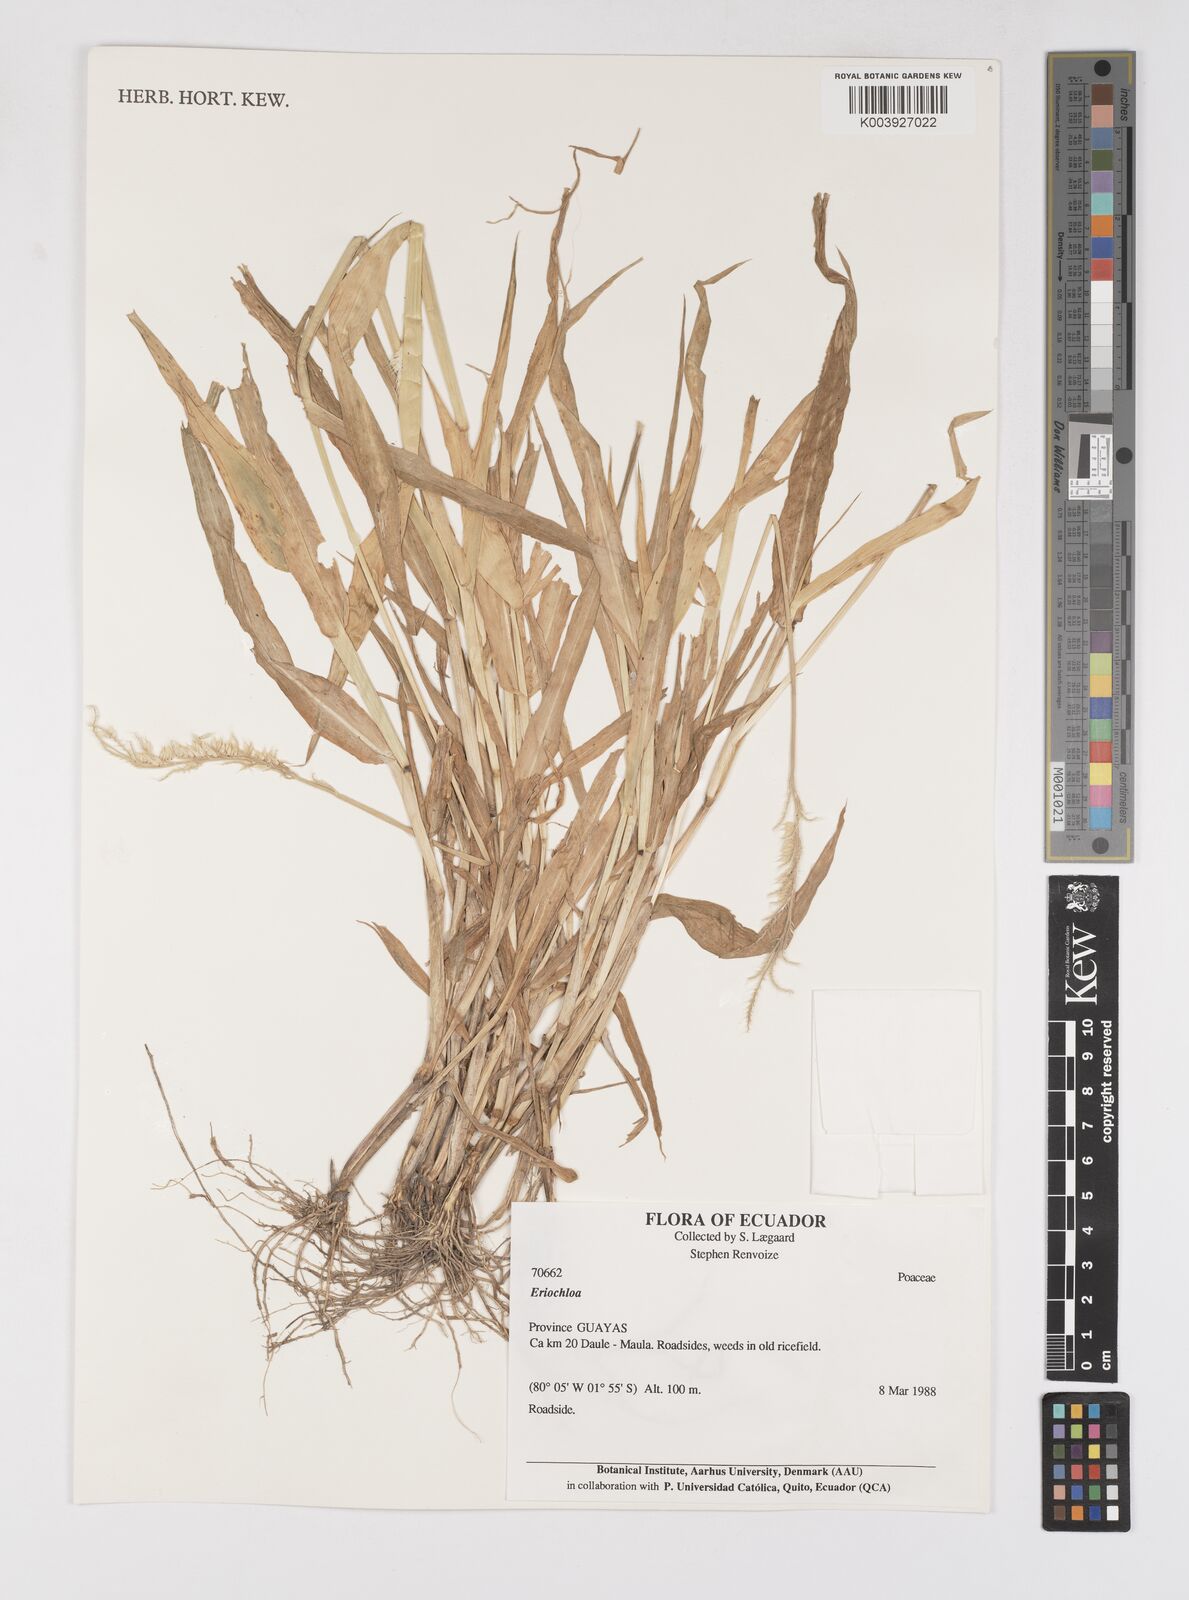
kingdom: Plantae
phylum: Tracheophyta
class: Liliopsida
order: Poales
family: Poaceae
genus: Eriochloa
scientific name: Eriochloa pacifica
